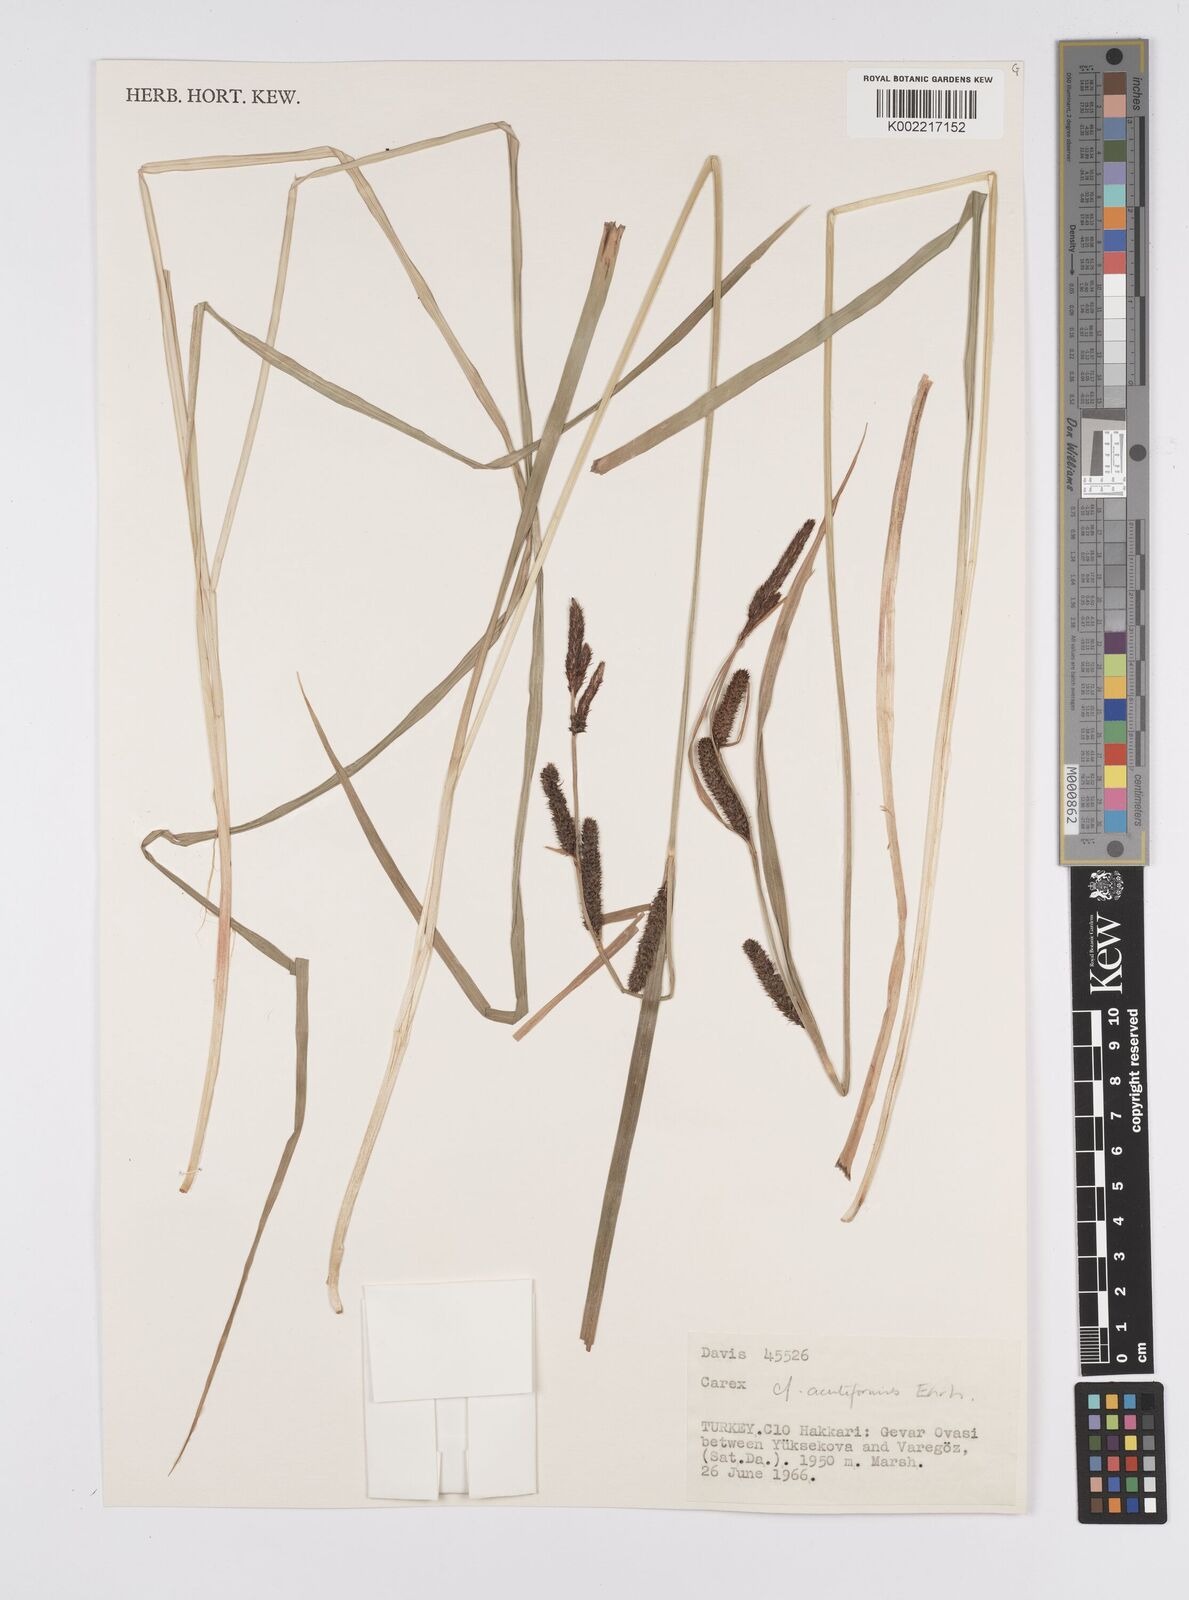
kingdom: Plantae
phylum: Tracheophyta
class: Liliopsida
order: Poales
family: Cyperaceae
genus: Carex
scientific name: Carex acutiformis
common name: Lesser pond-sedge
